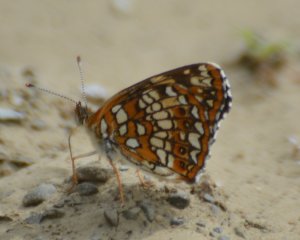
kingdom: Animalia
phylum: Arthropoda
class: Insecta
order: Lepidoptera
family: Nymphalidae
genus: Chlosyne
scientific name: Chlosyne harrisii
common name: Harris's Checkerspot
